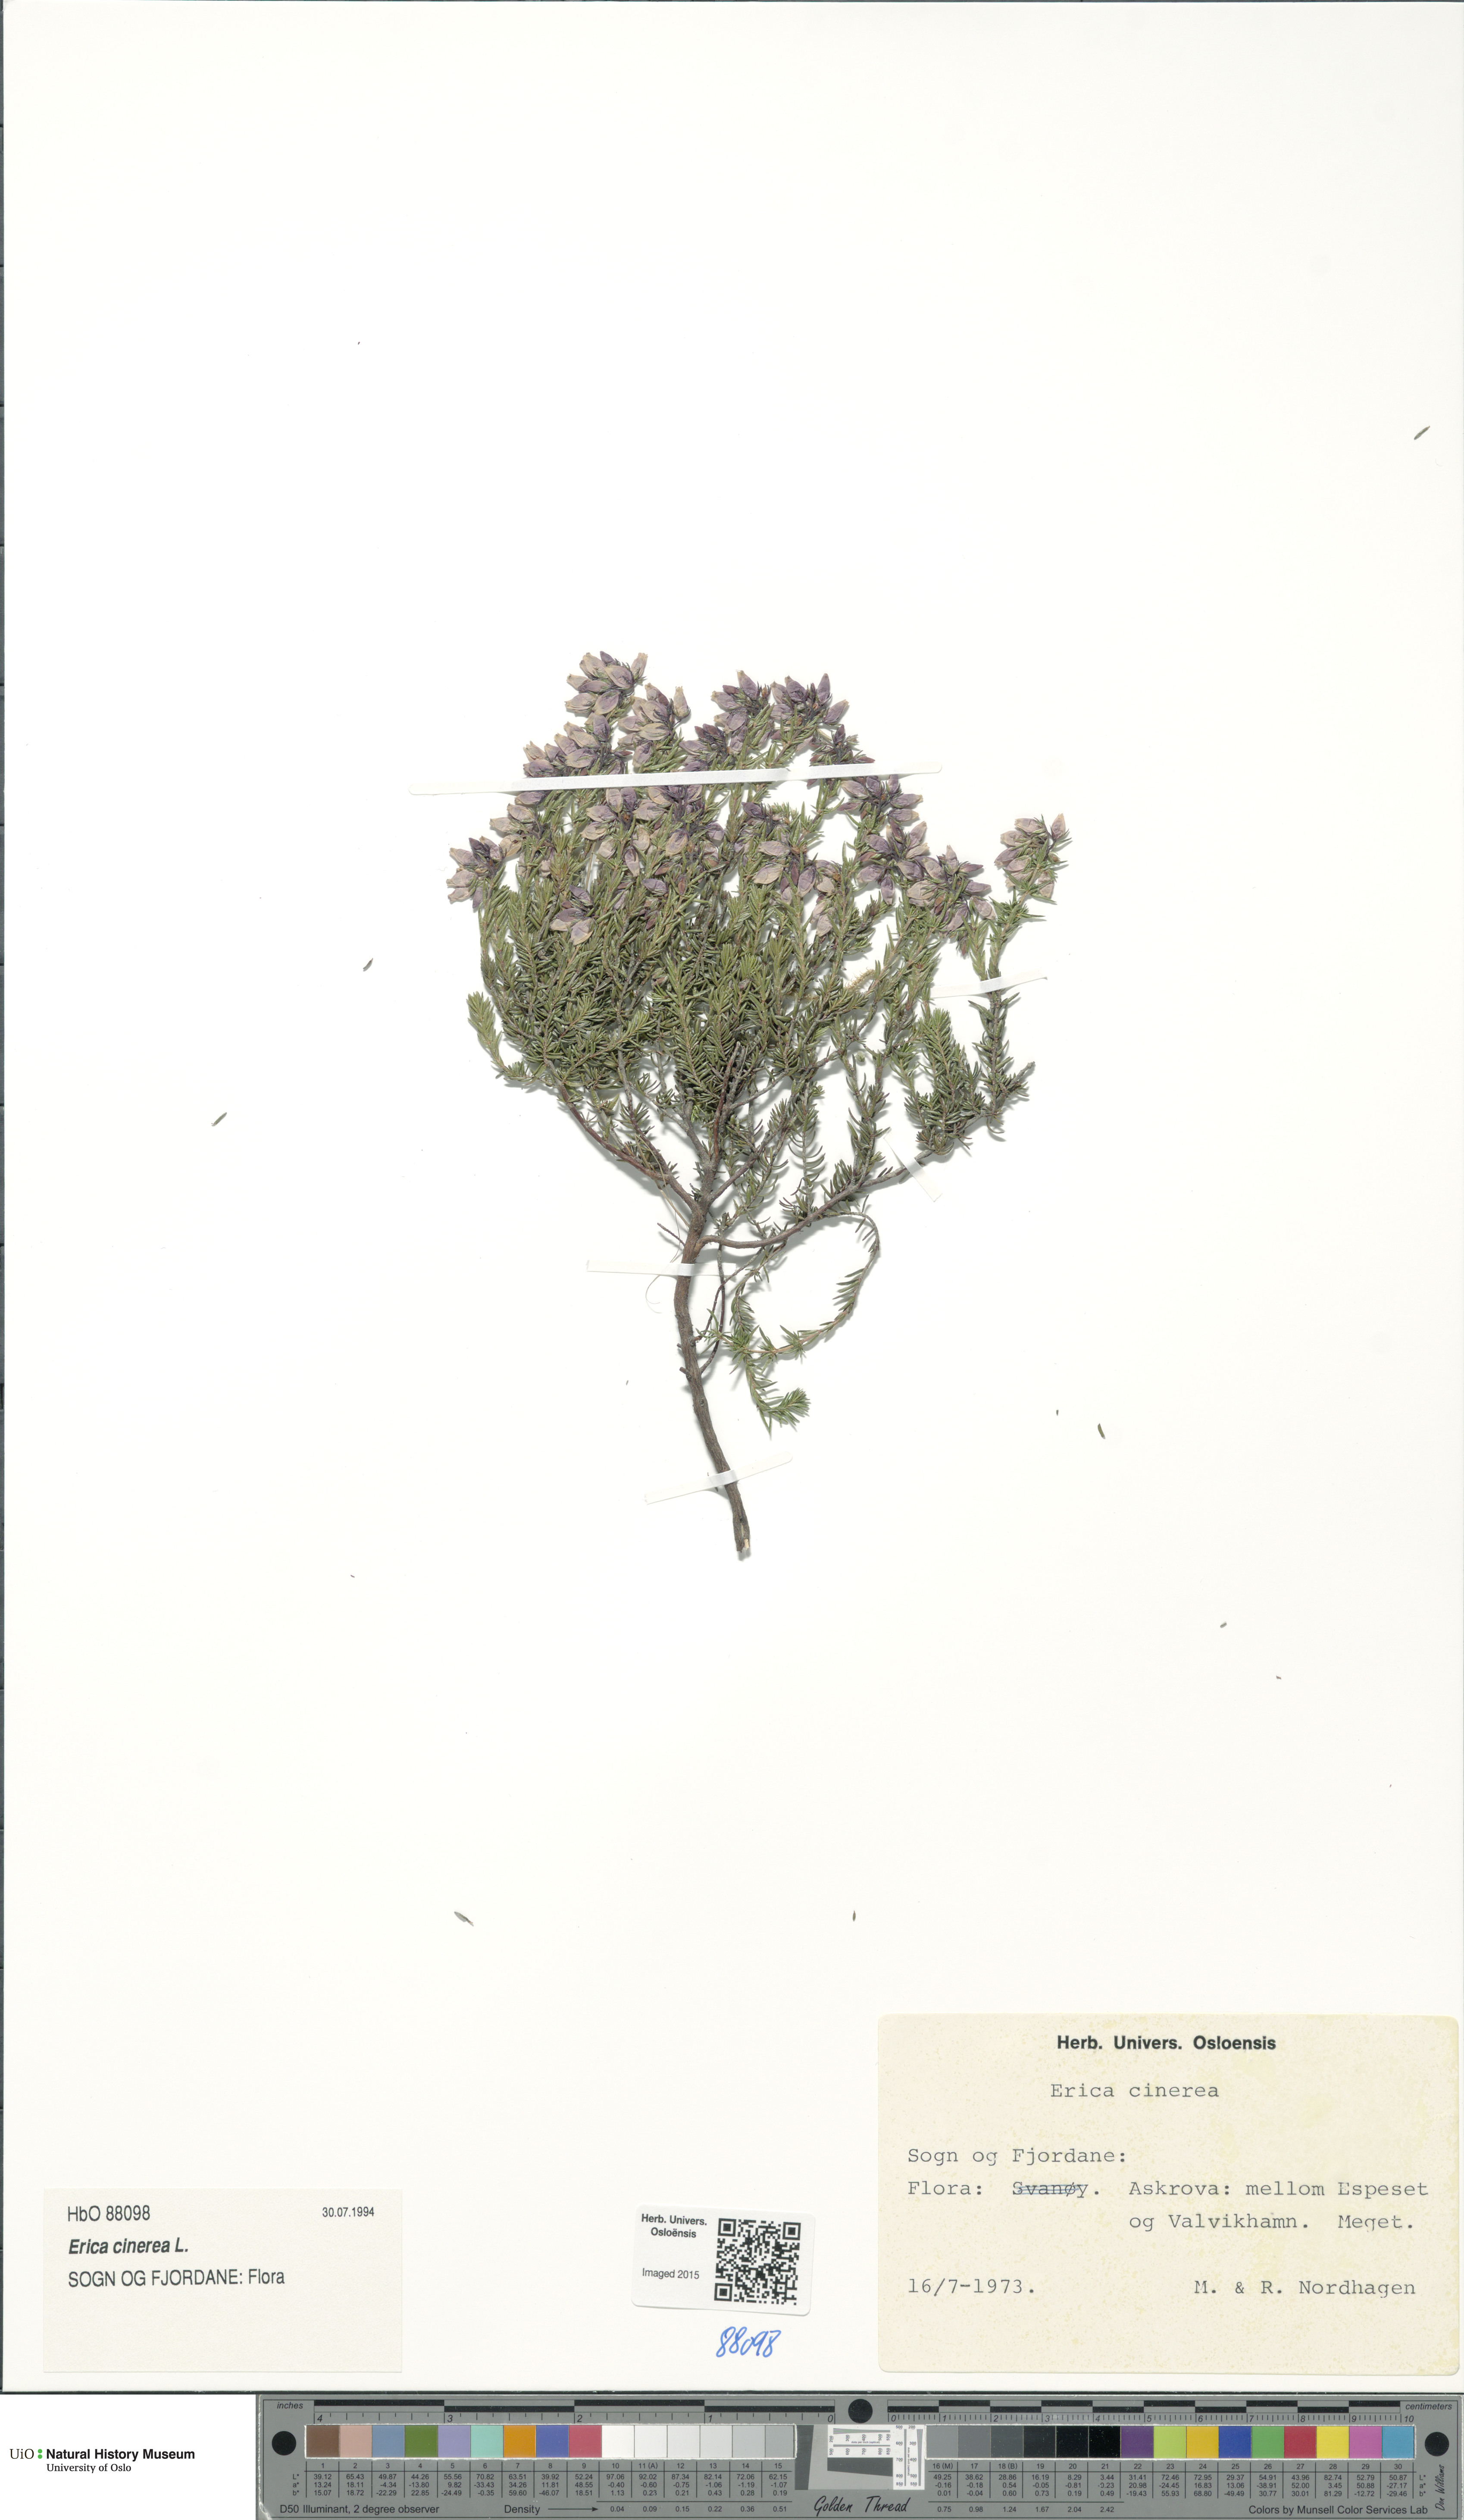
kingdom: Plantae
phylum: Tracheophyta
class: Magnoliopsida
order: Ericales
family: Ericaceae
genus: Erica
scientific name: Erica cinerea
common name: Bell heather
